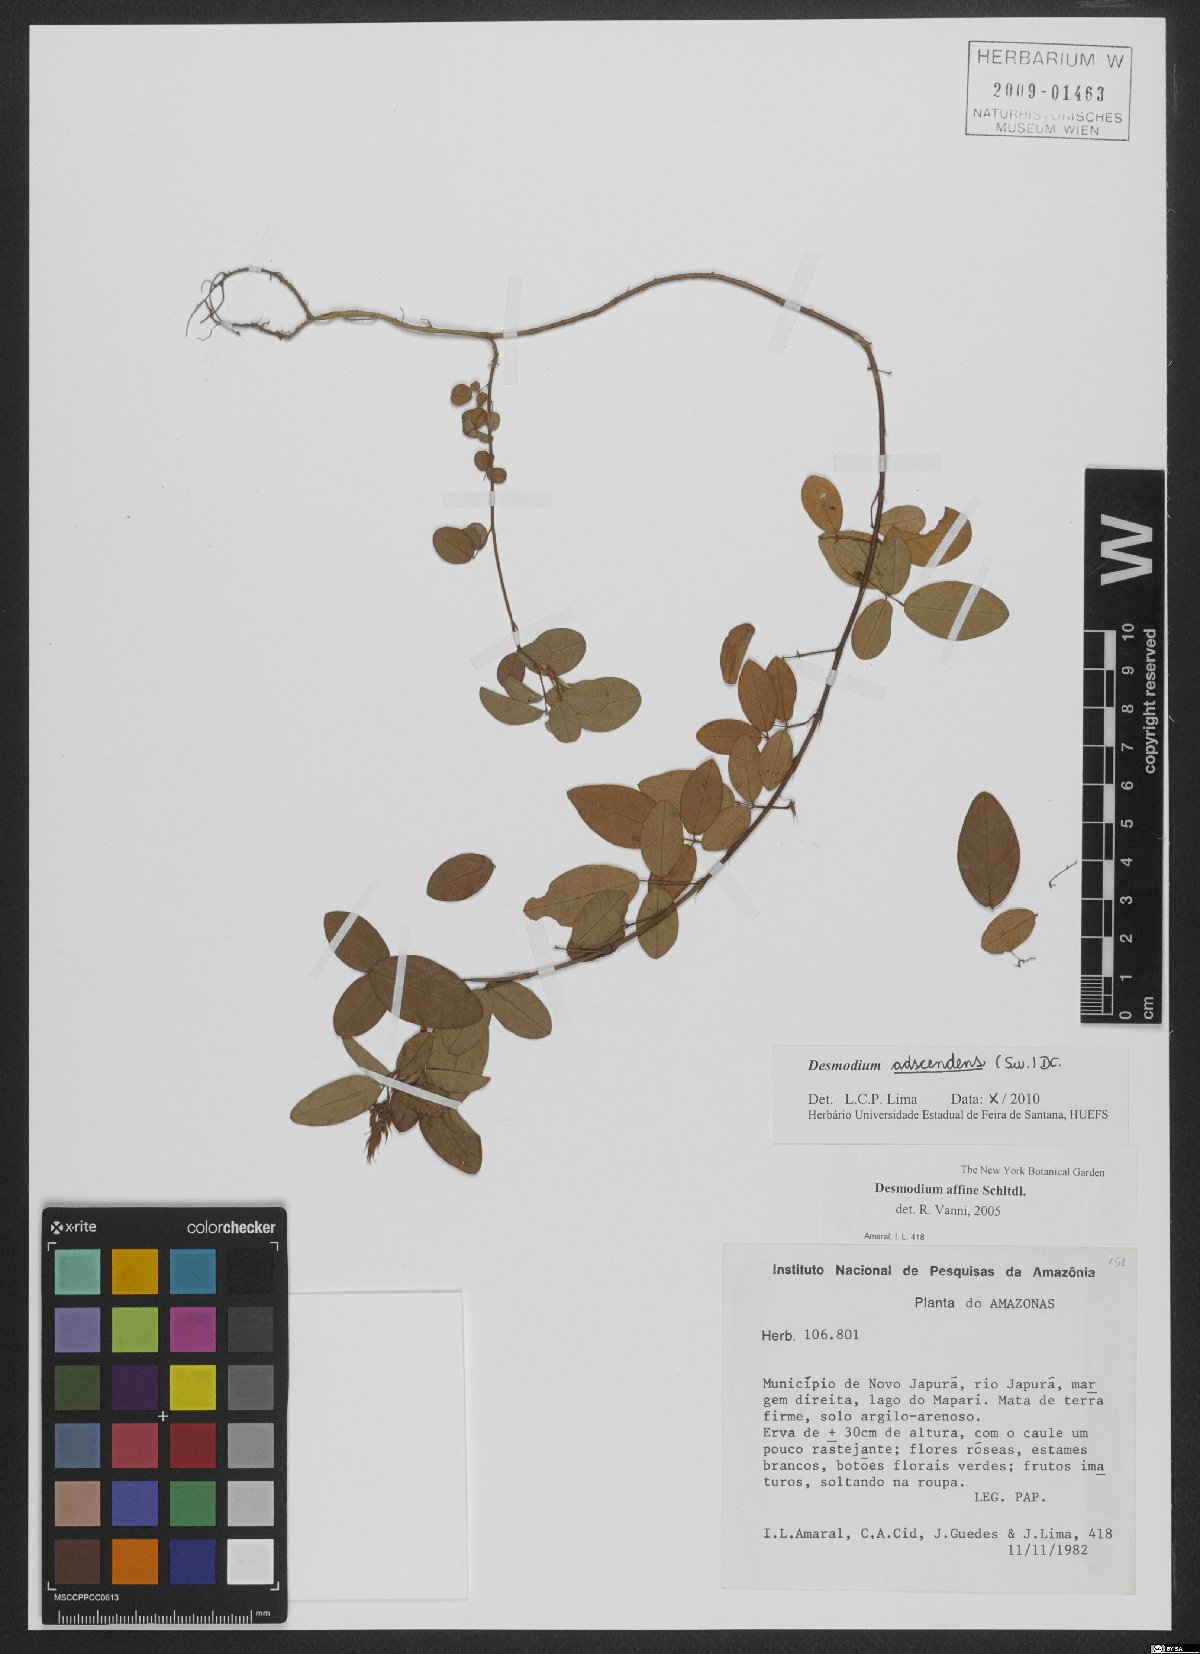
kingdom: Plantae
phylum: Tracheophyta
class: Magnoliopsida
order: Fabales
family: Fabaceae
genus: Grona
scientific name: Grona adscendens
